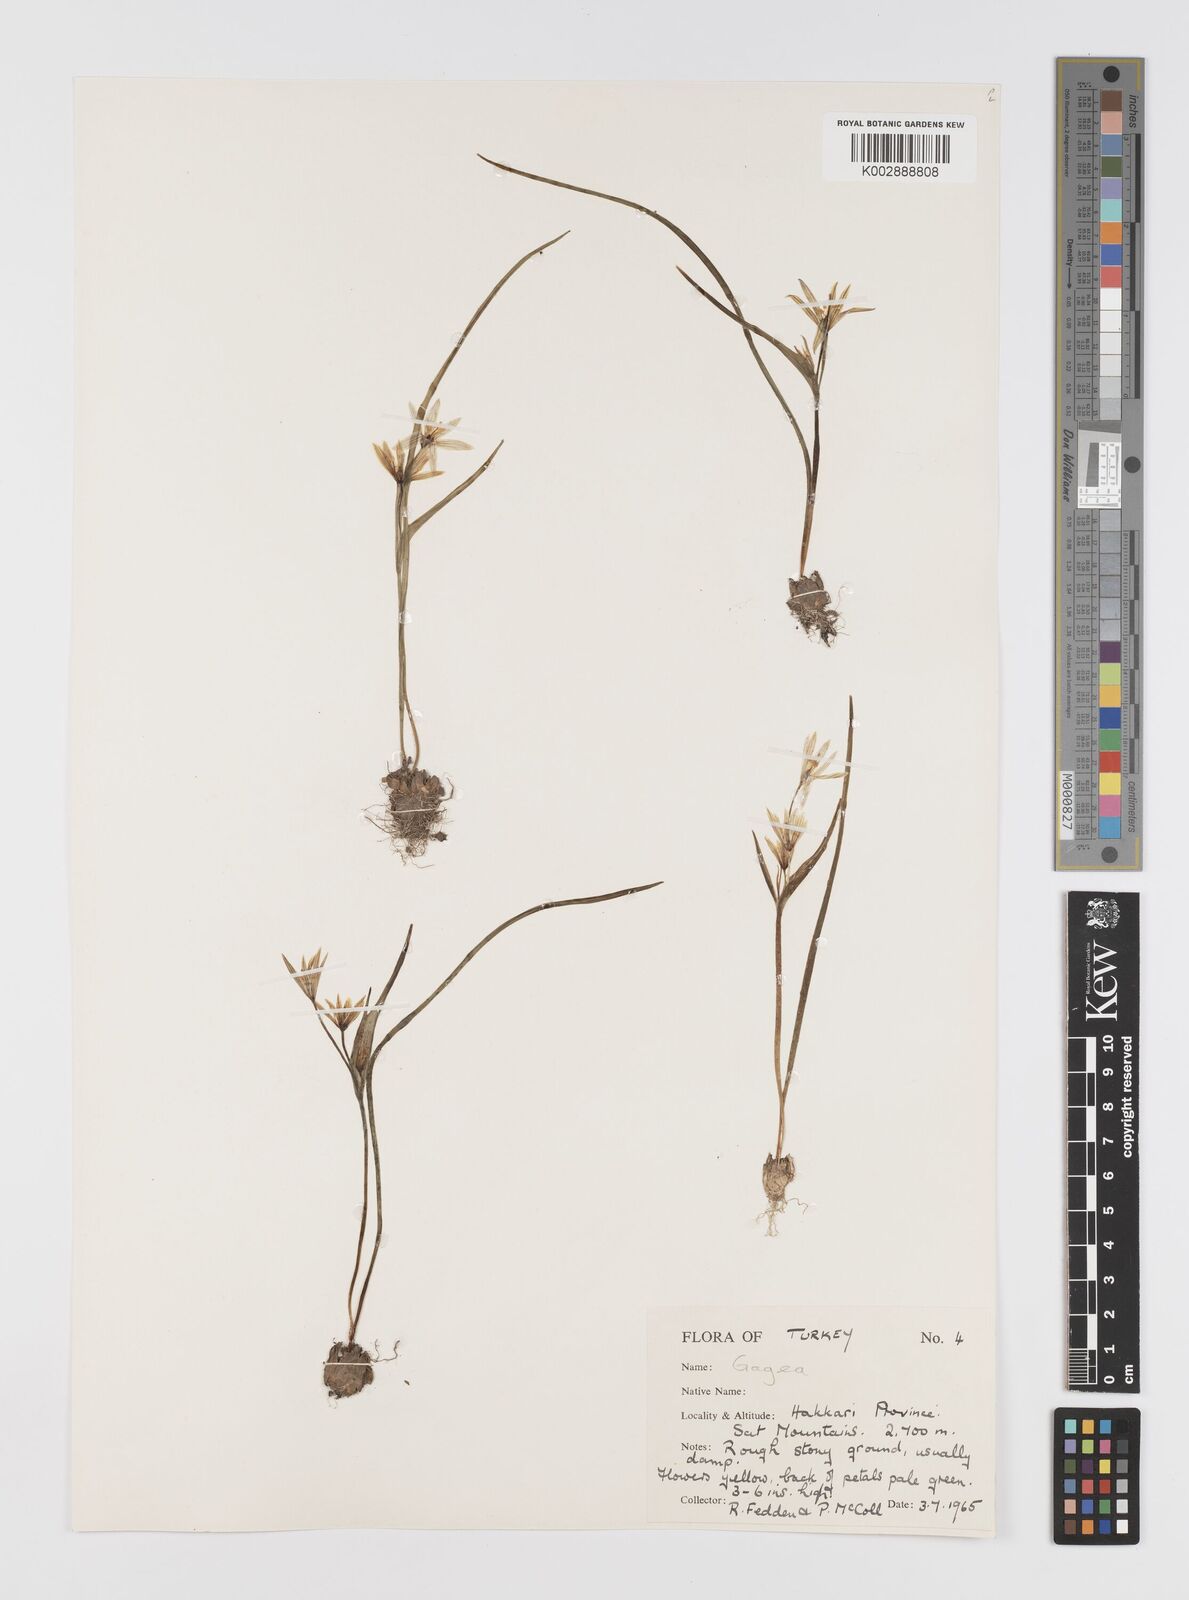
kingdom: Plantae
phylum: Tracheophyta
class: Liliopsida
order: Liliales
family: Liliaceae
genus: Gagea
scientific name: Gagea
